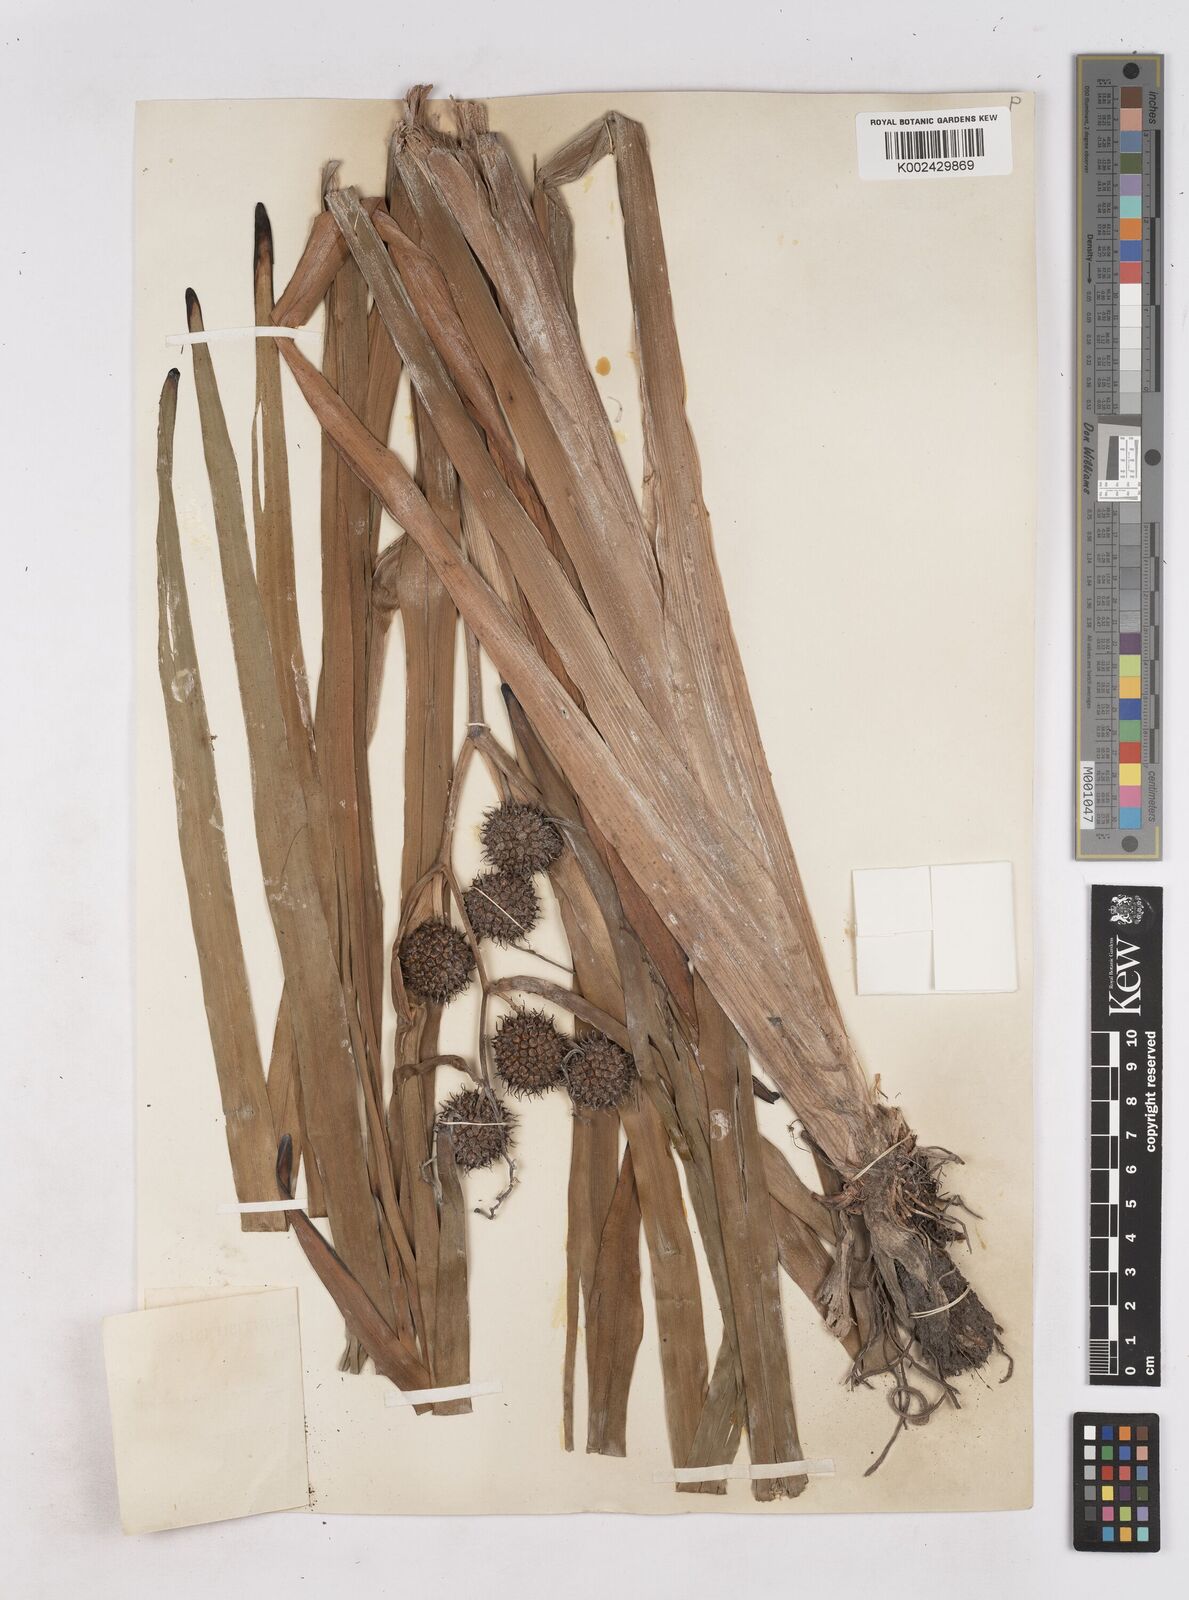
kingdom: Plantae
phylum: Tracheophyta
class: Liliopsida
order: Poales
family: Typhaceae
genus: Sparganium
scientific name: Sparganium erectum
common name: Branched bur-reed
